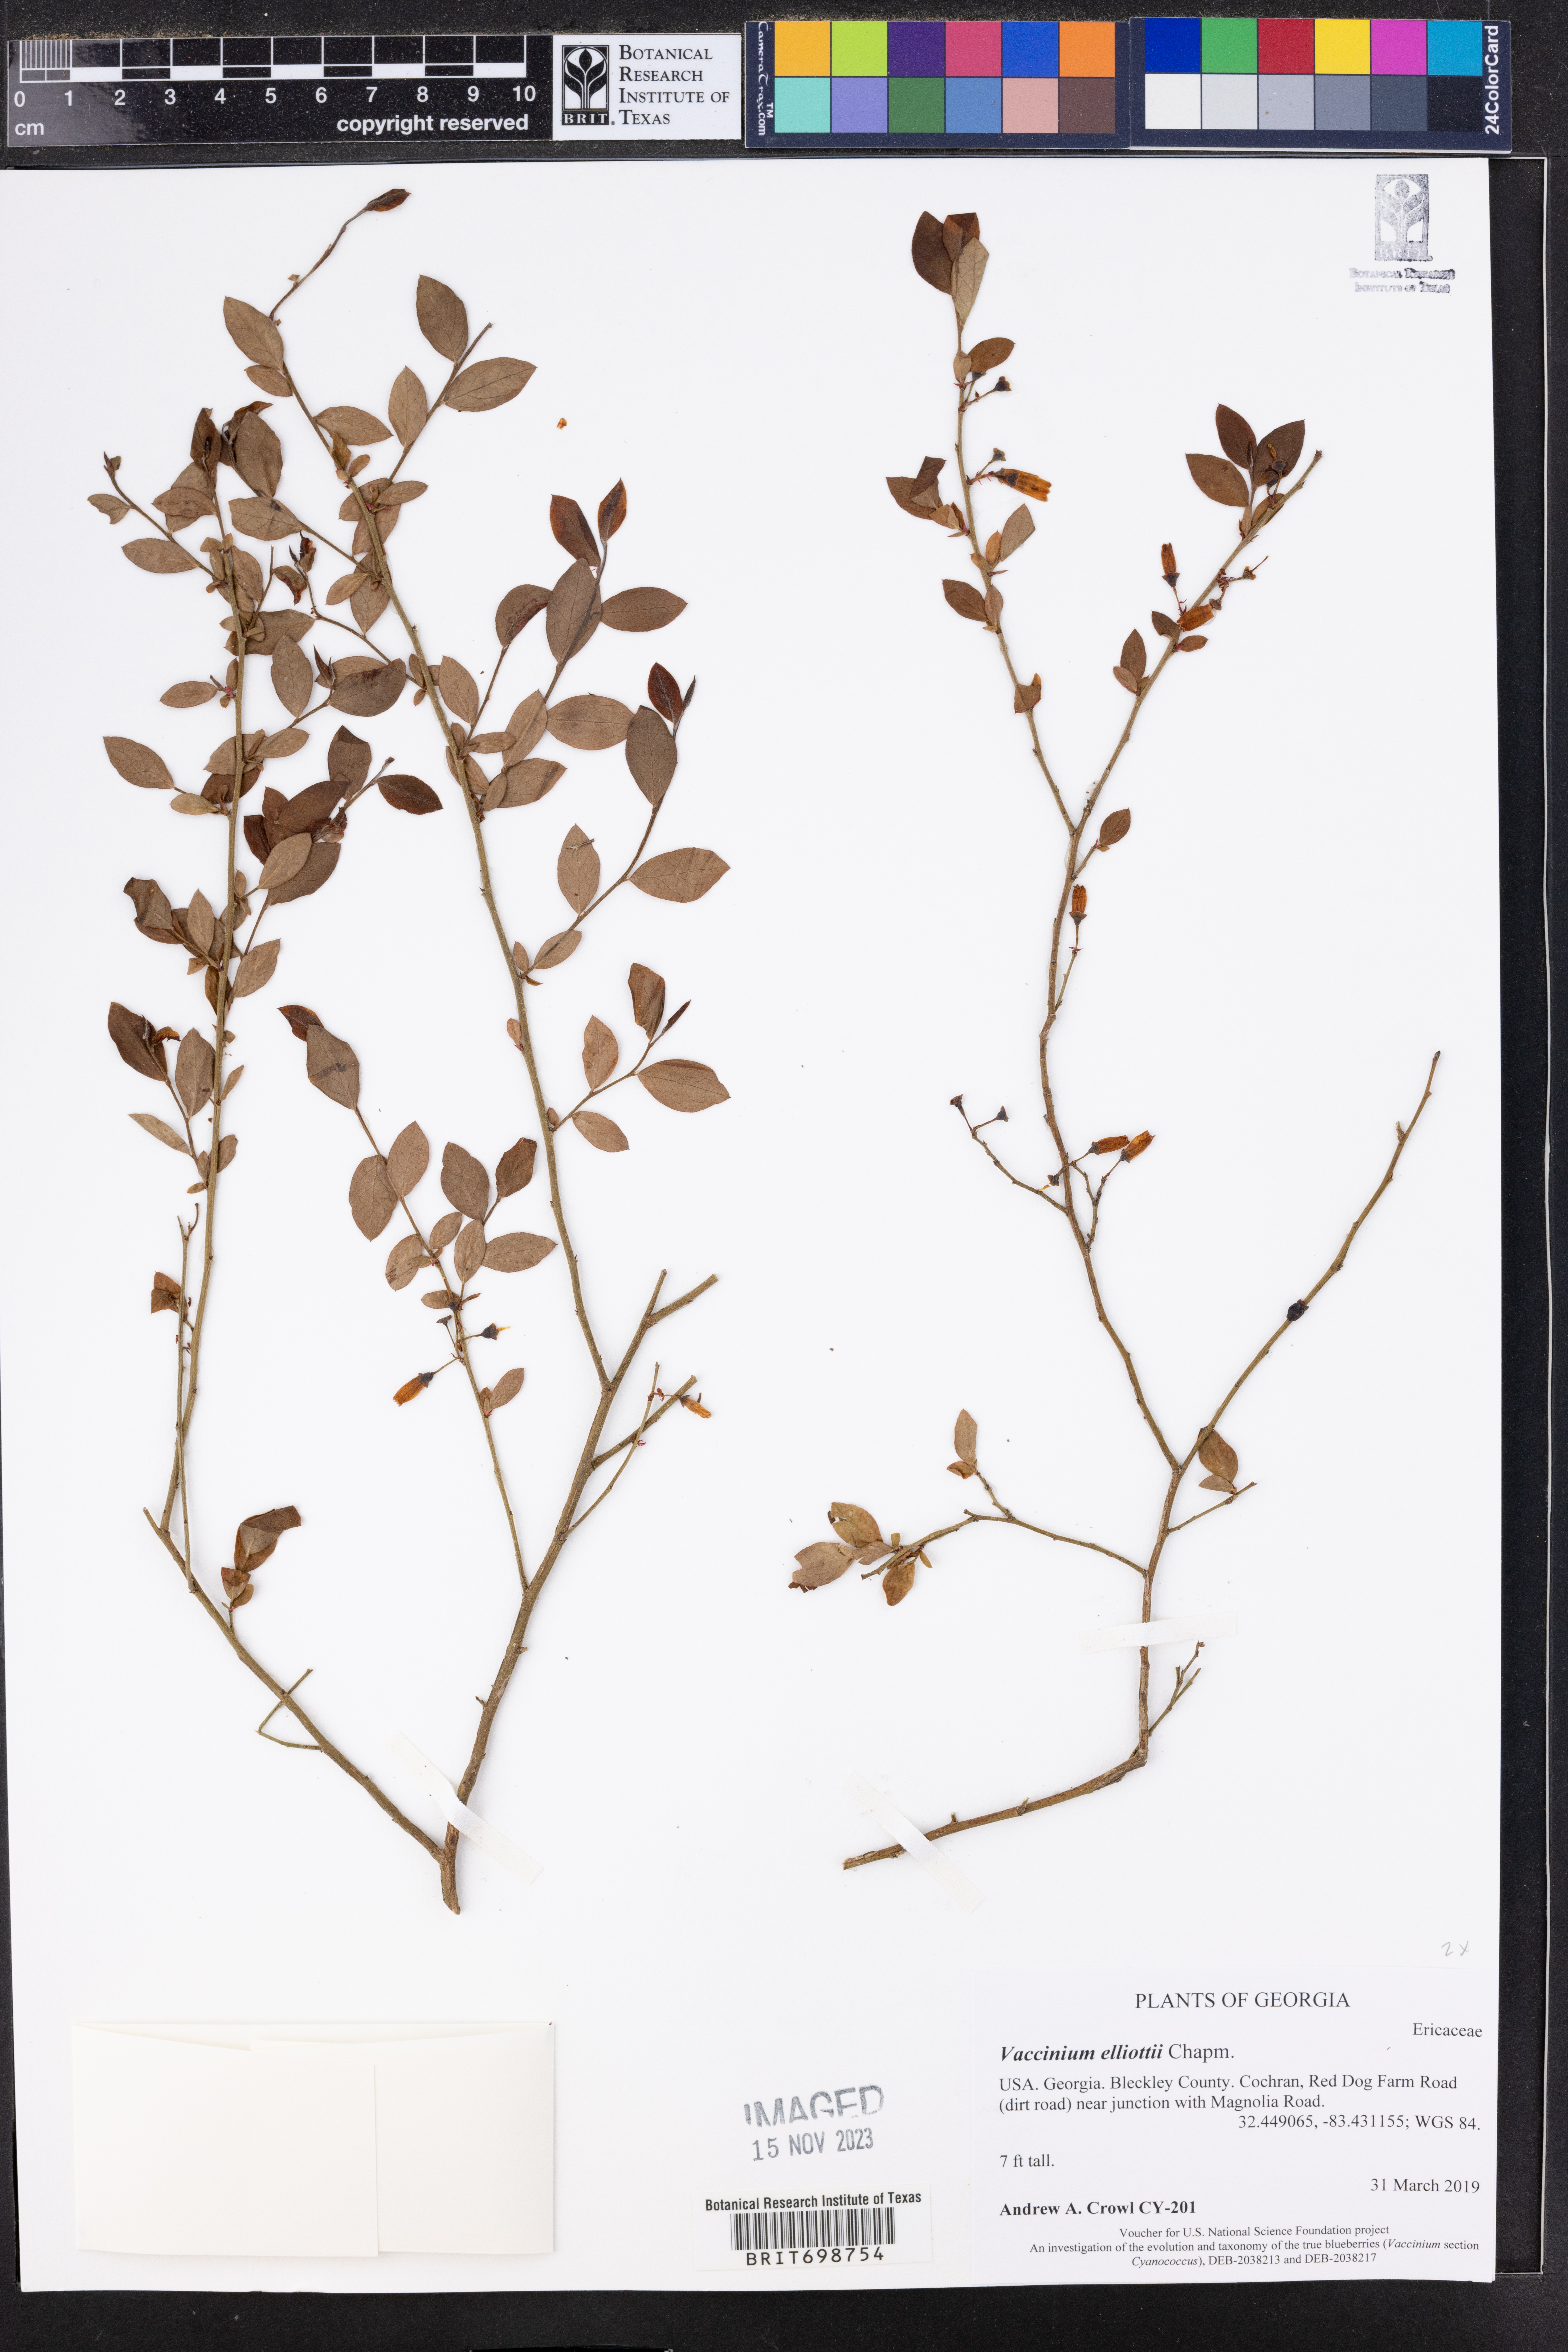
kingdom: Plantae
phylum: Tracheophyta
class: Magnoliopsida
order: Ericales
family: Ericaceae
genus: Vaccinium
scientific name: Vaccinium corymbosum
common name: Blueberry
